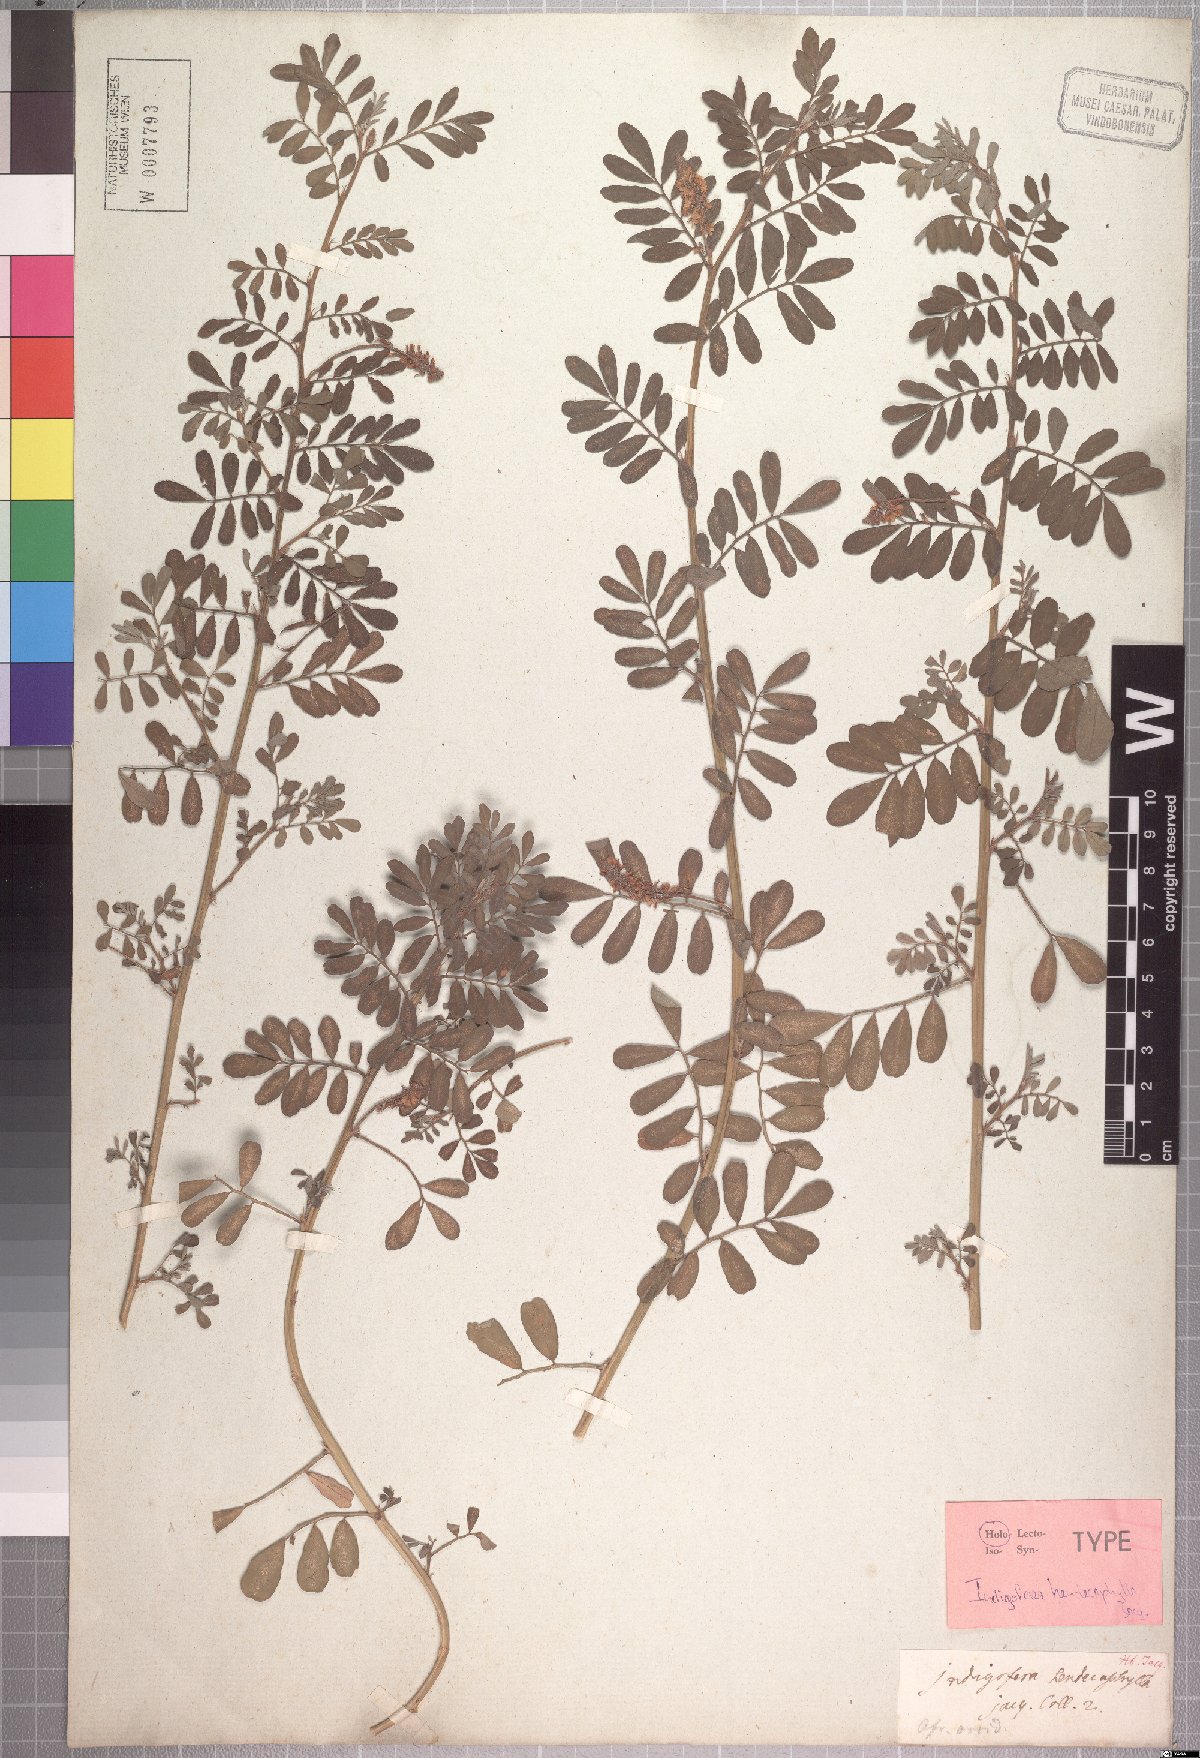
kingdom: Plantae
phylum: Tracheophyta
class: Magnoliopsida
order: Fabales
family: Fabaceae
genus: Indigofera
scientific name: Indigofera hendecaphylla
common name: Trailing indigo
